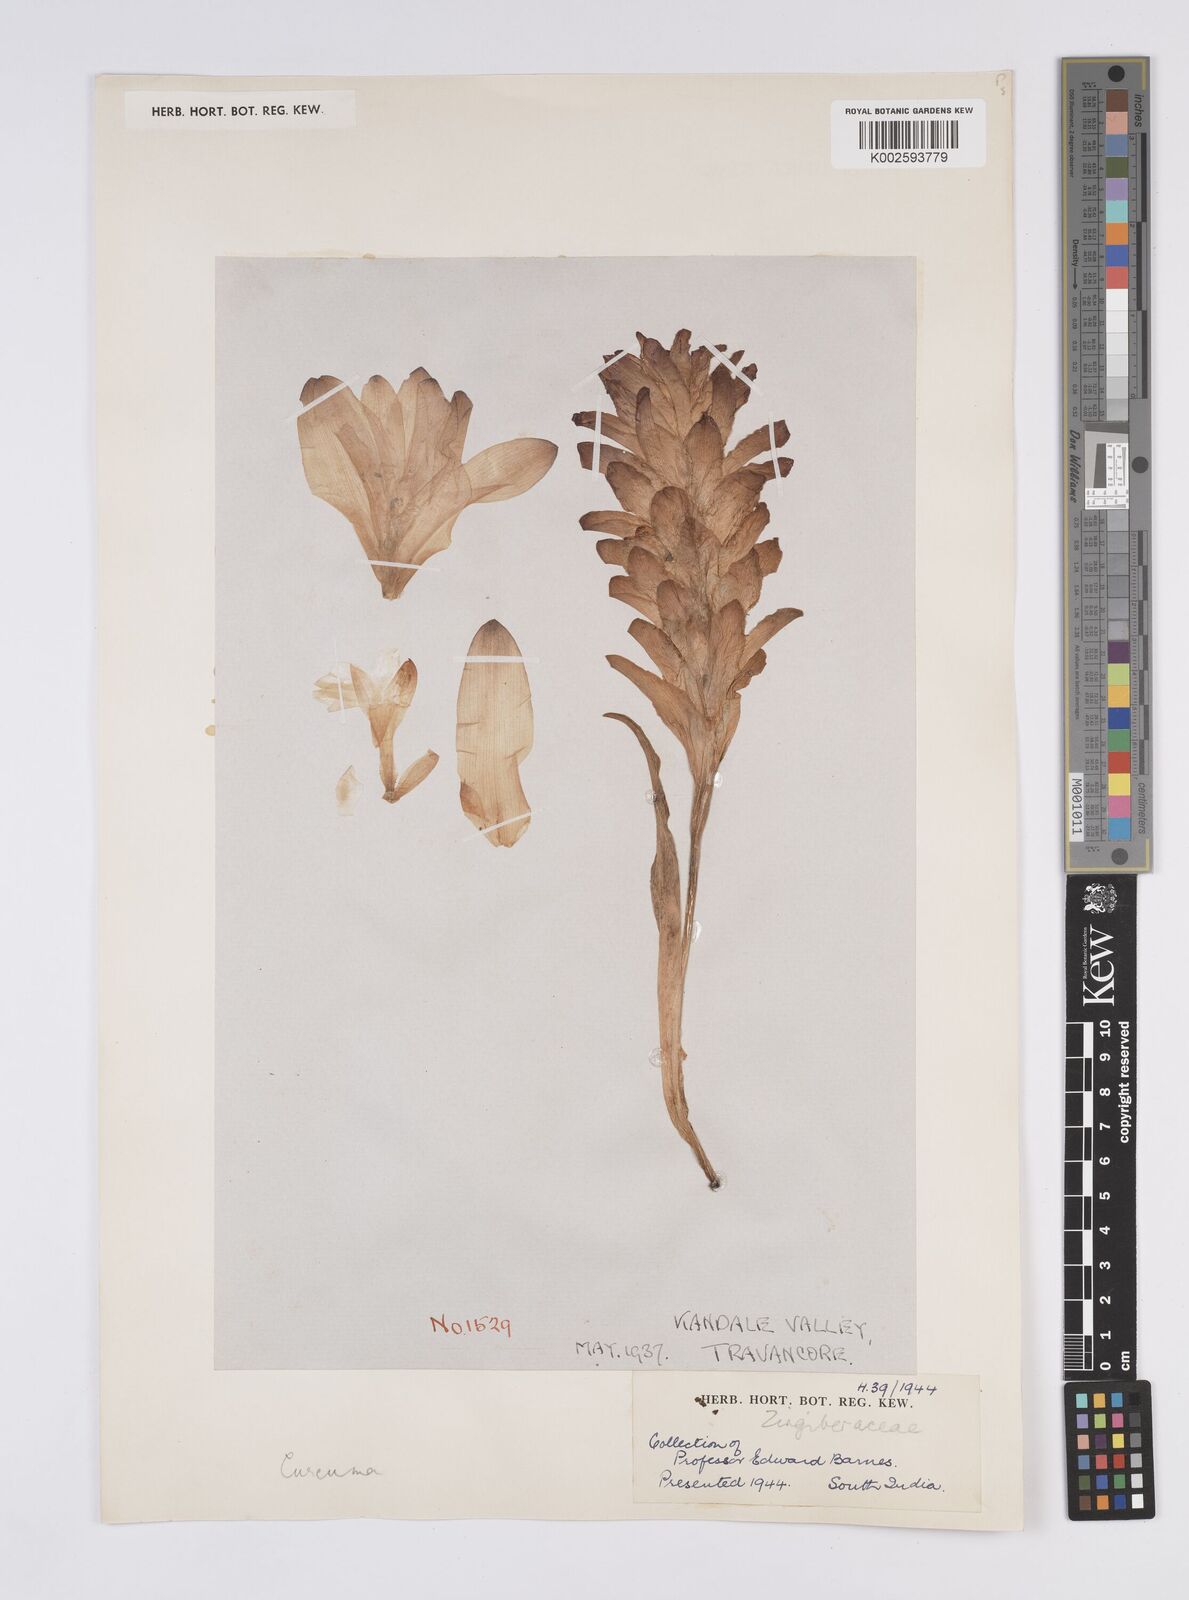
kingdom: Plantae
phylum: Tracheophyta
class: Liliopsida
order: Zingiberales
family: Zingiberaceae
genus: Curcuma
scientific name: Curcuma
